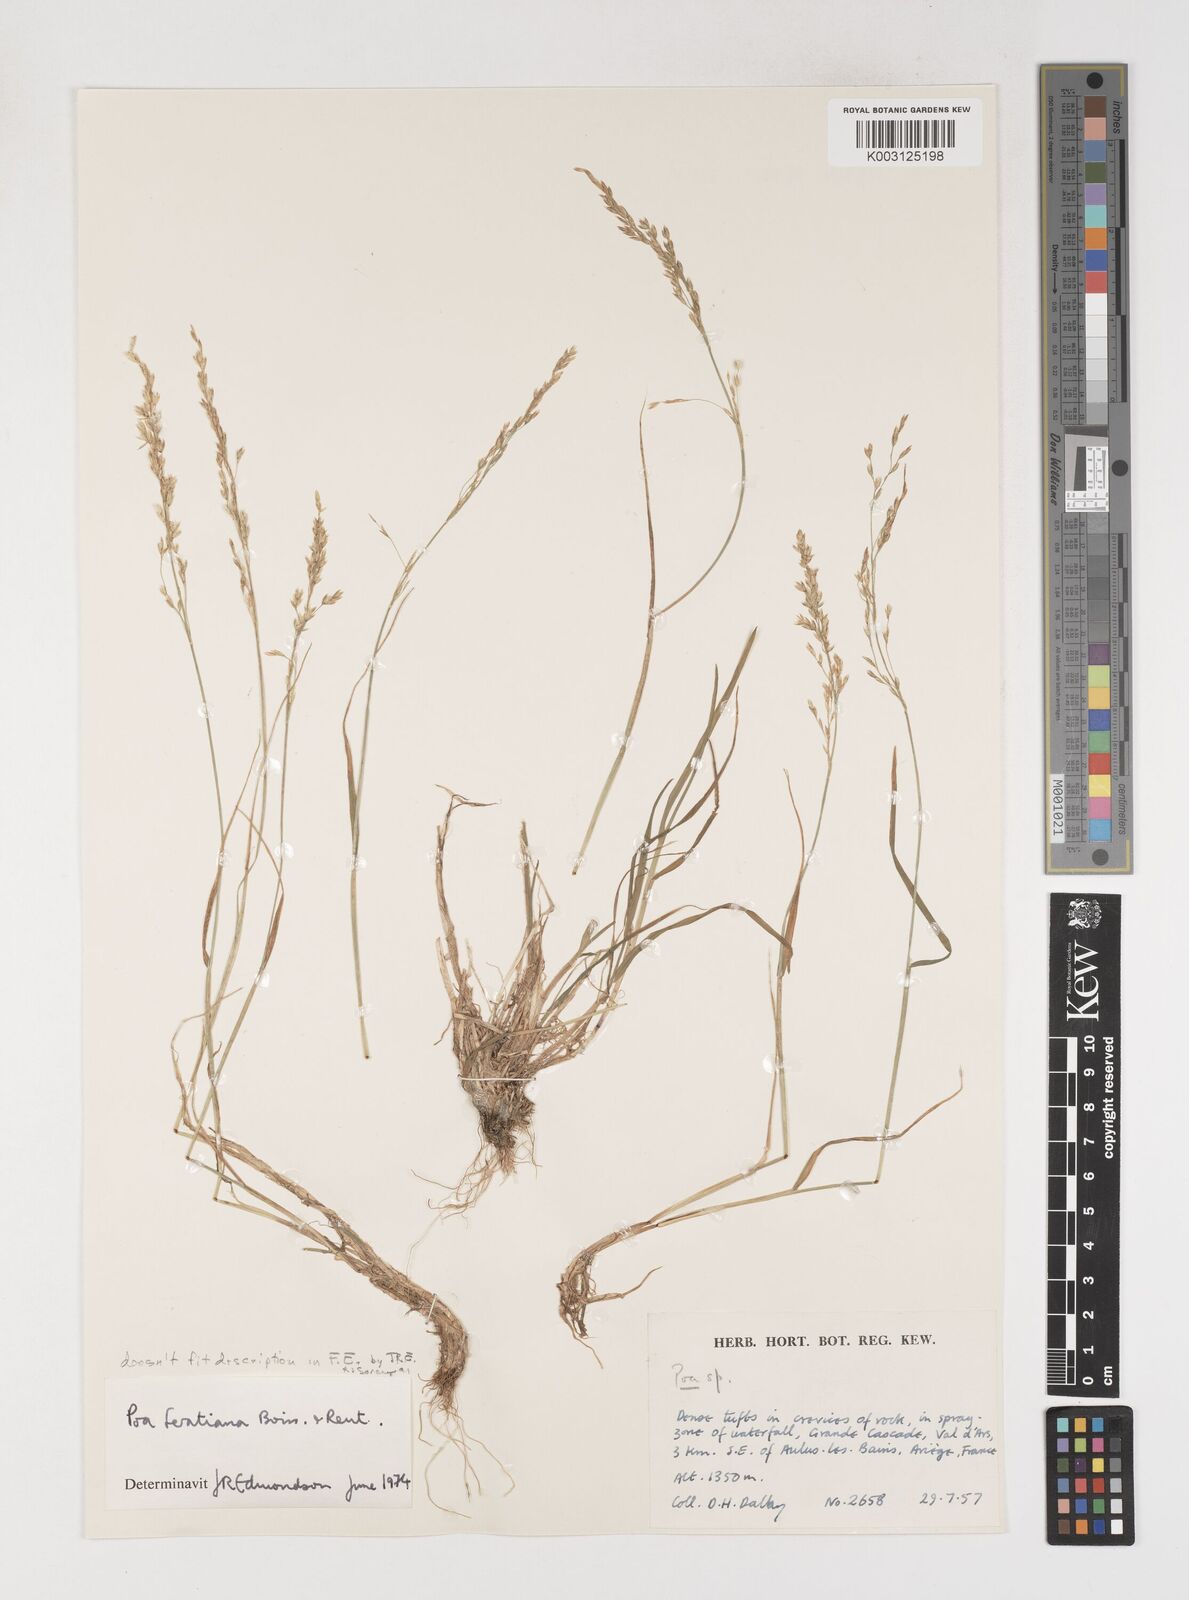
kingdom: Plantae
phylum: Tracheophyta
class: Liliopsida
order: Poales
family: Poaceae
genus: Poa
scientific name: Poa trivialis
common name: Rough bluegrass
